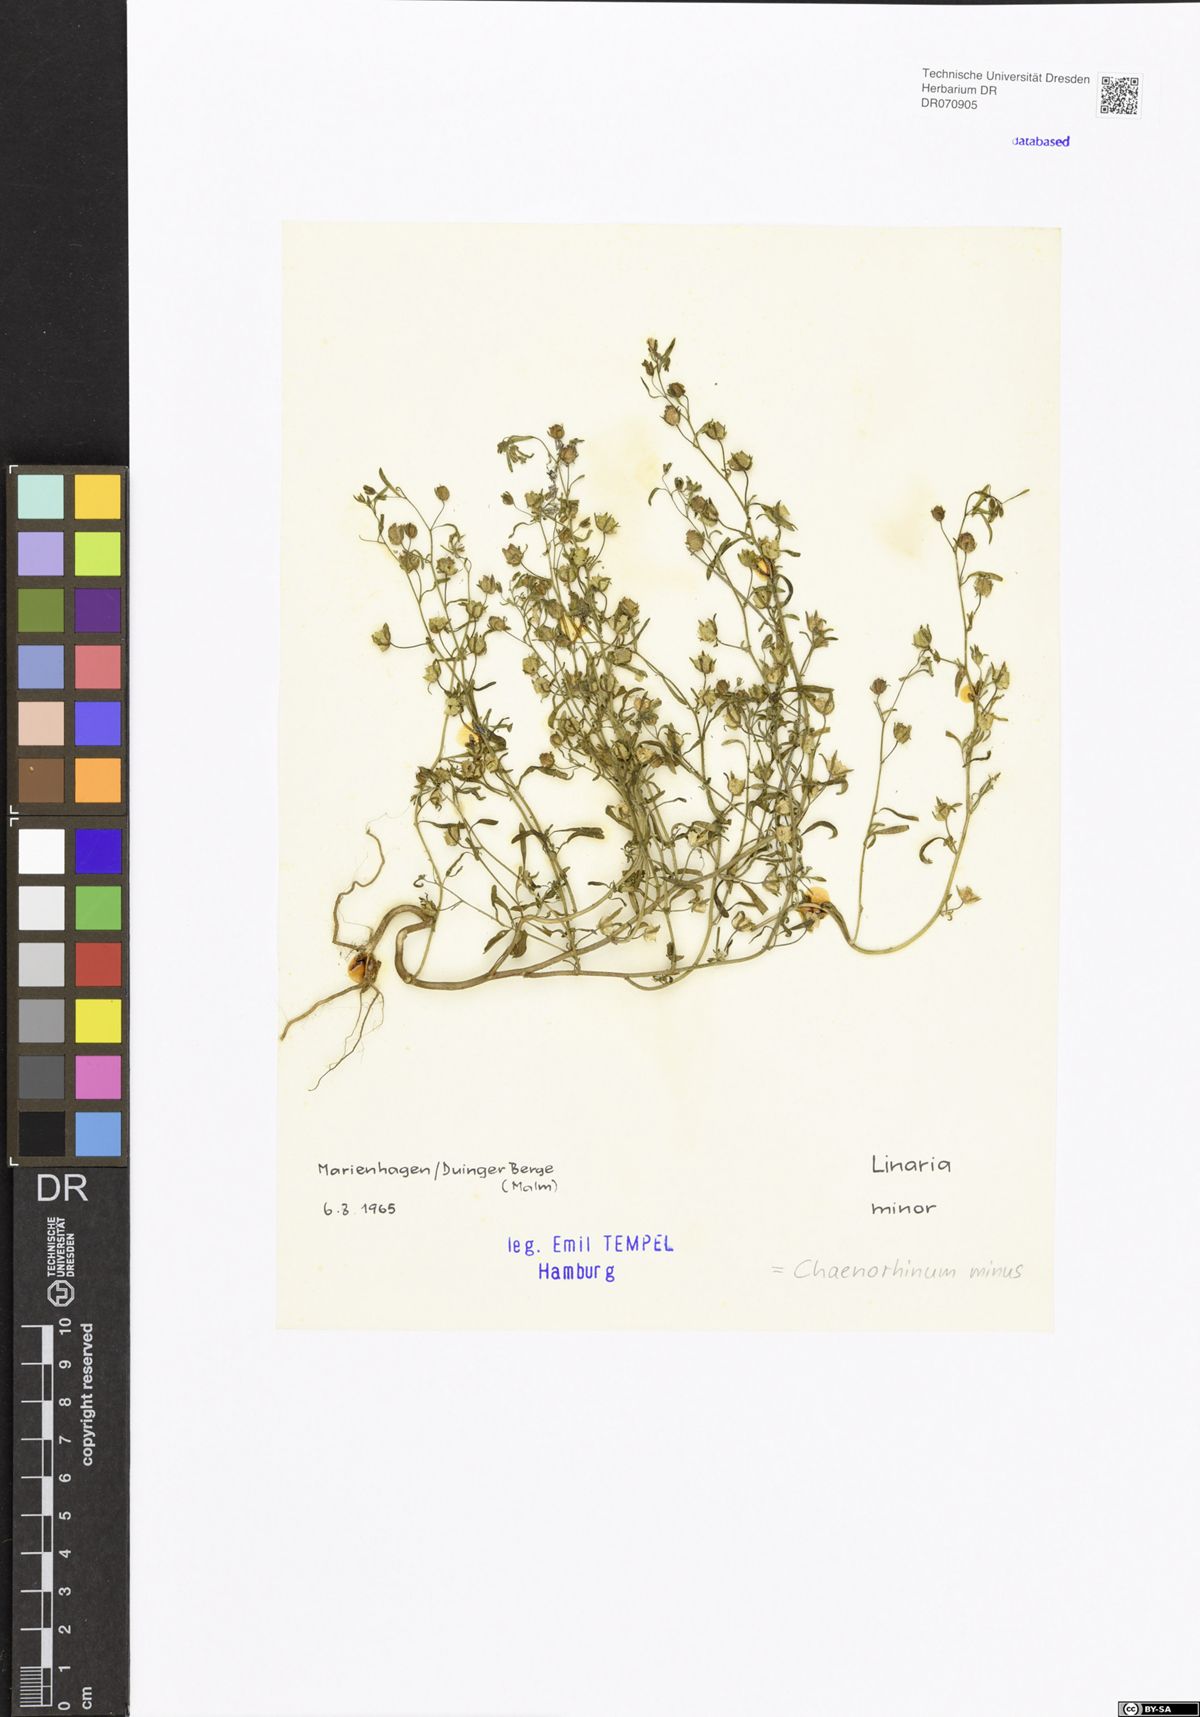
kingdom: Plantae
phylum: Tracheophyta
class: Magnoliopsida
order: Lamiales
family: Plantaginaceae
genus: Chaenorhinum
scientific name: Chaenorhinum minus
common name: Dwarf snapdragon
